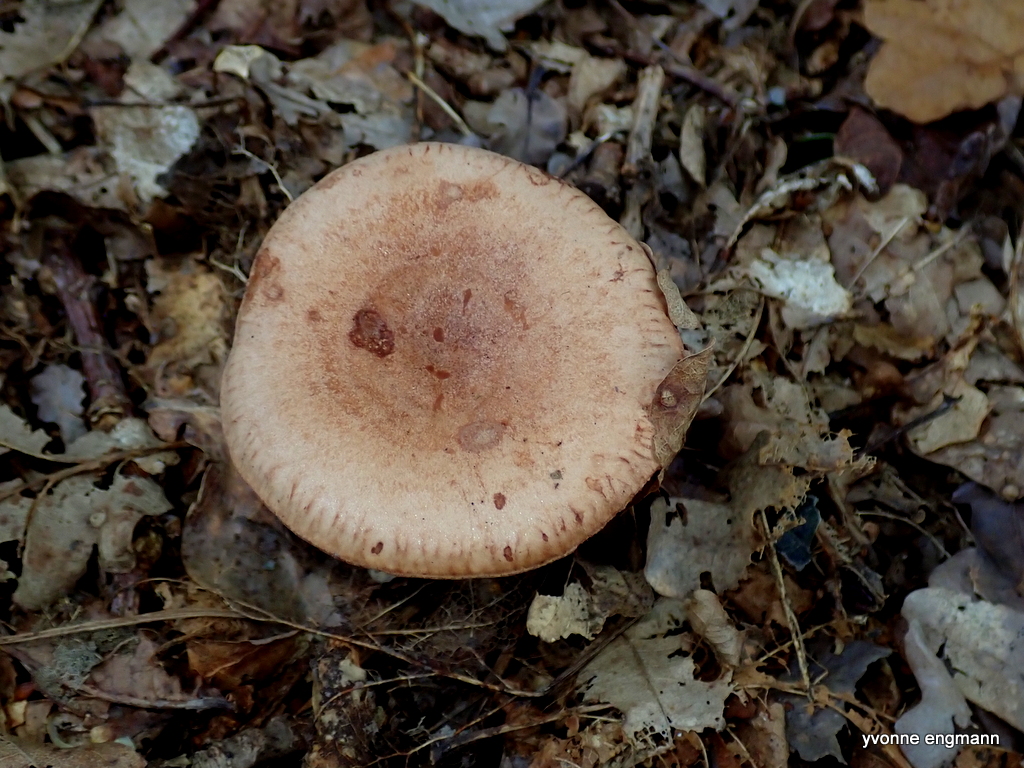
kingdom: Fungi
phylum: Basidiomycota
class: Agaricomycetes
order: Russulales
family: Russulaceae
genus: Lactarius
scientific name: Lactarius quietus
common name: ege-mælkehat
